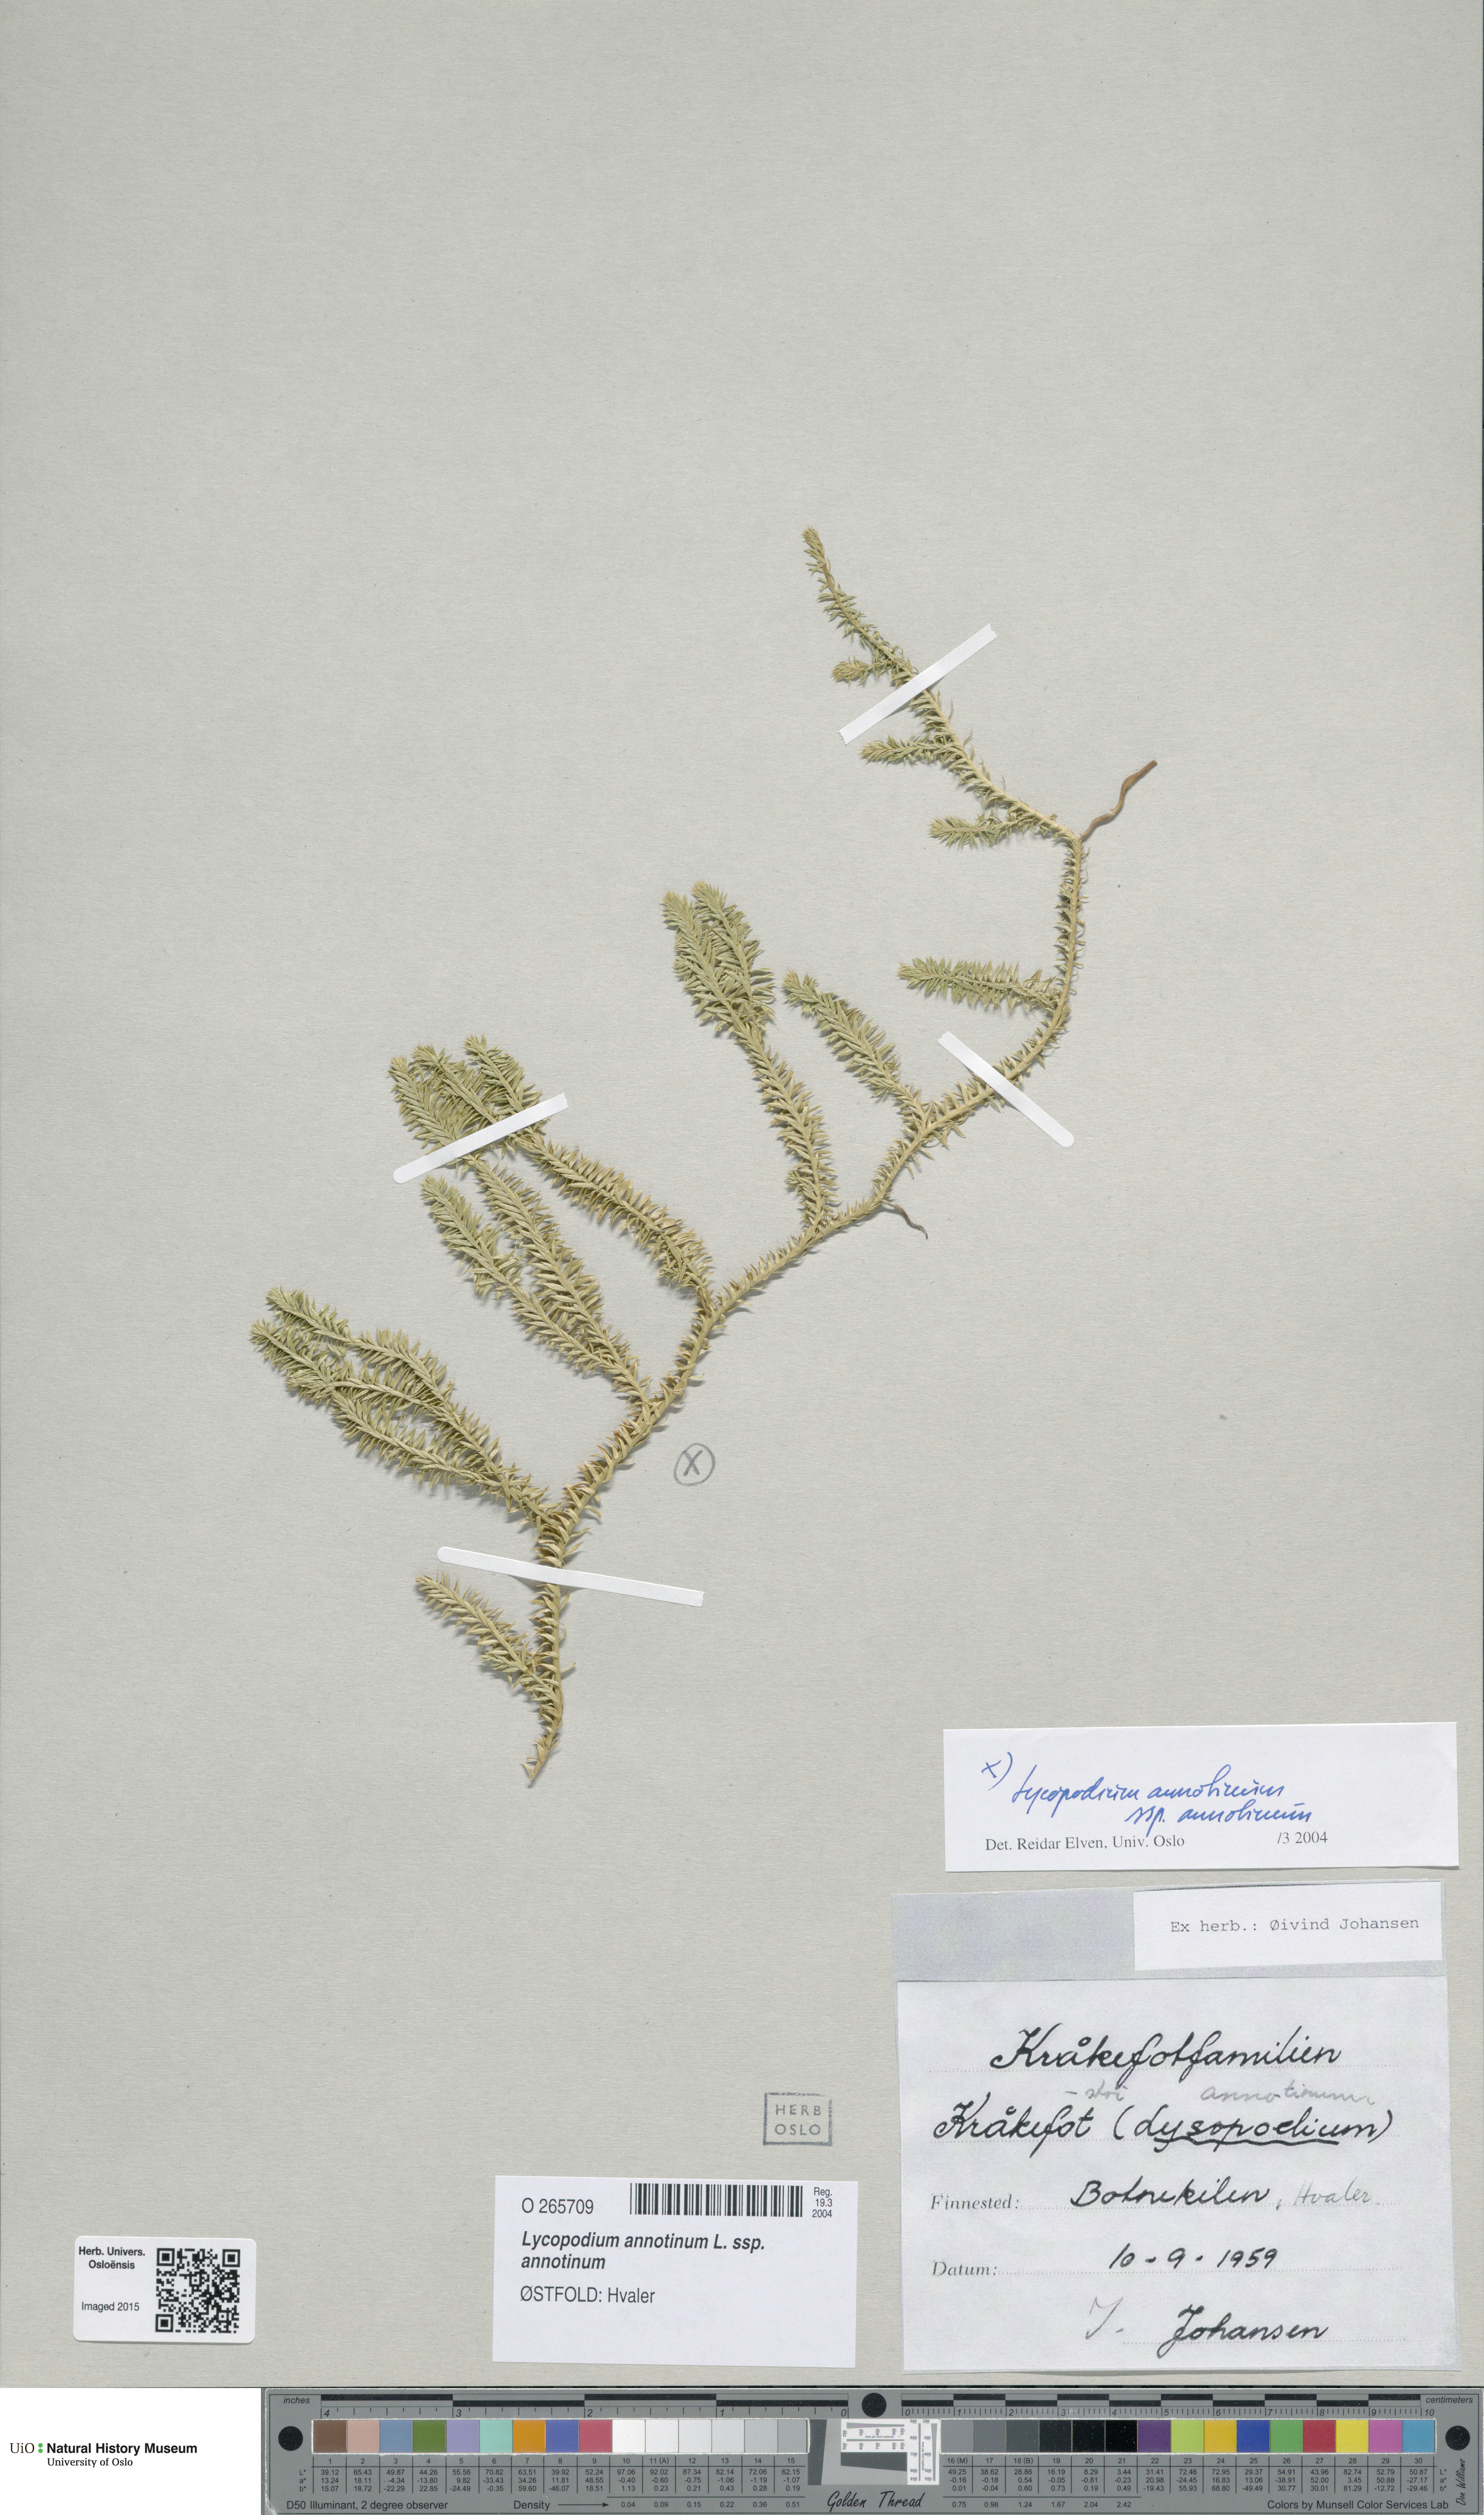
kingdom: Plantae
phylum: Tracheophyta
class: Lycopodiopsida
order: Lycopodiales
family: Lycopodiaceae
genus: Spinulum
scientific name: Spinulum annotinum
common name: Interrupted club-moss
